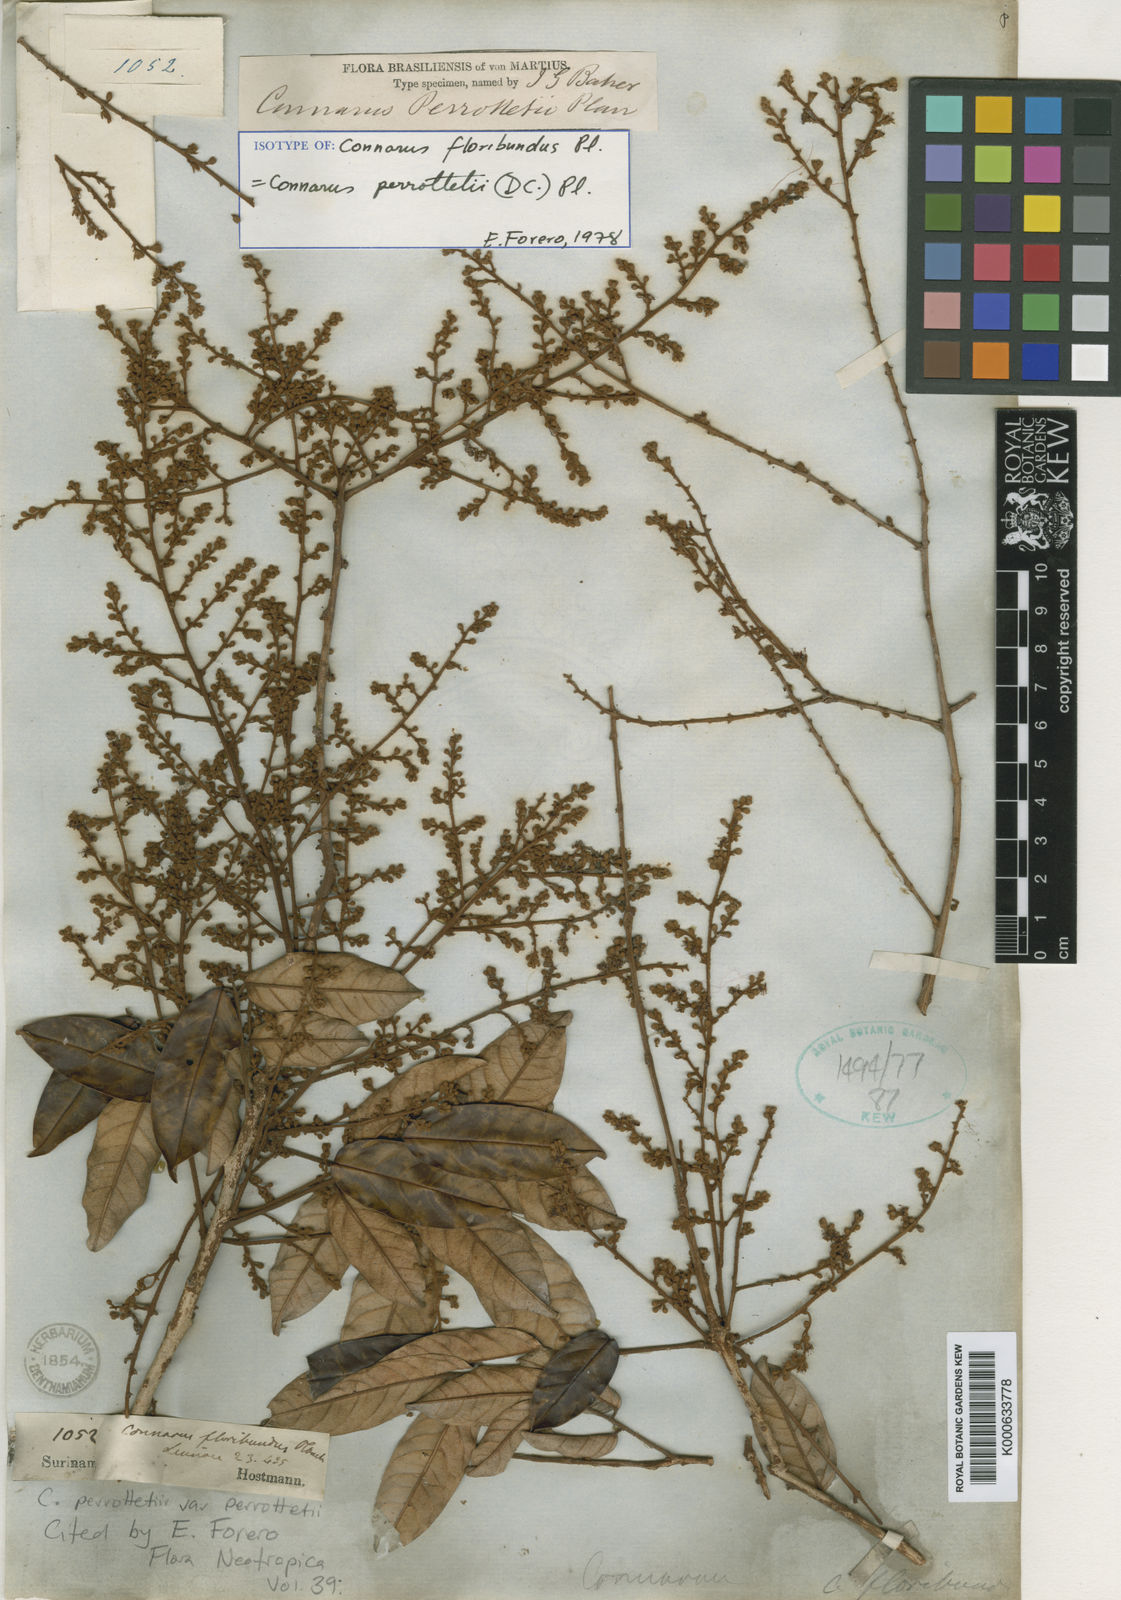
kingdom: Plantae
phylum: Tracheophyta
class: Magnoliopsida
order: Oxalidales
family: Connaraceae
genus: Connarus
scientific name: Connarus perrottetii
